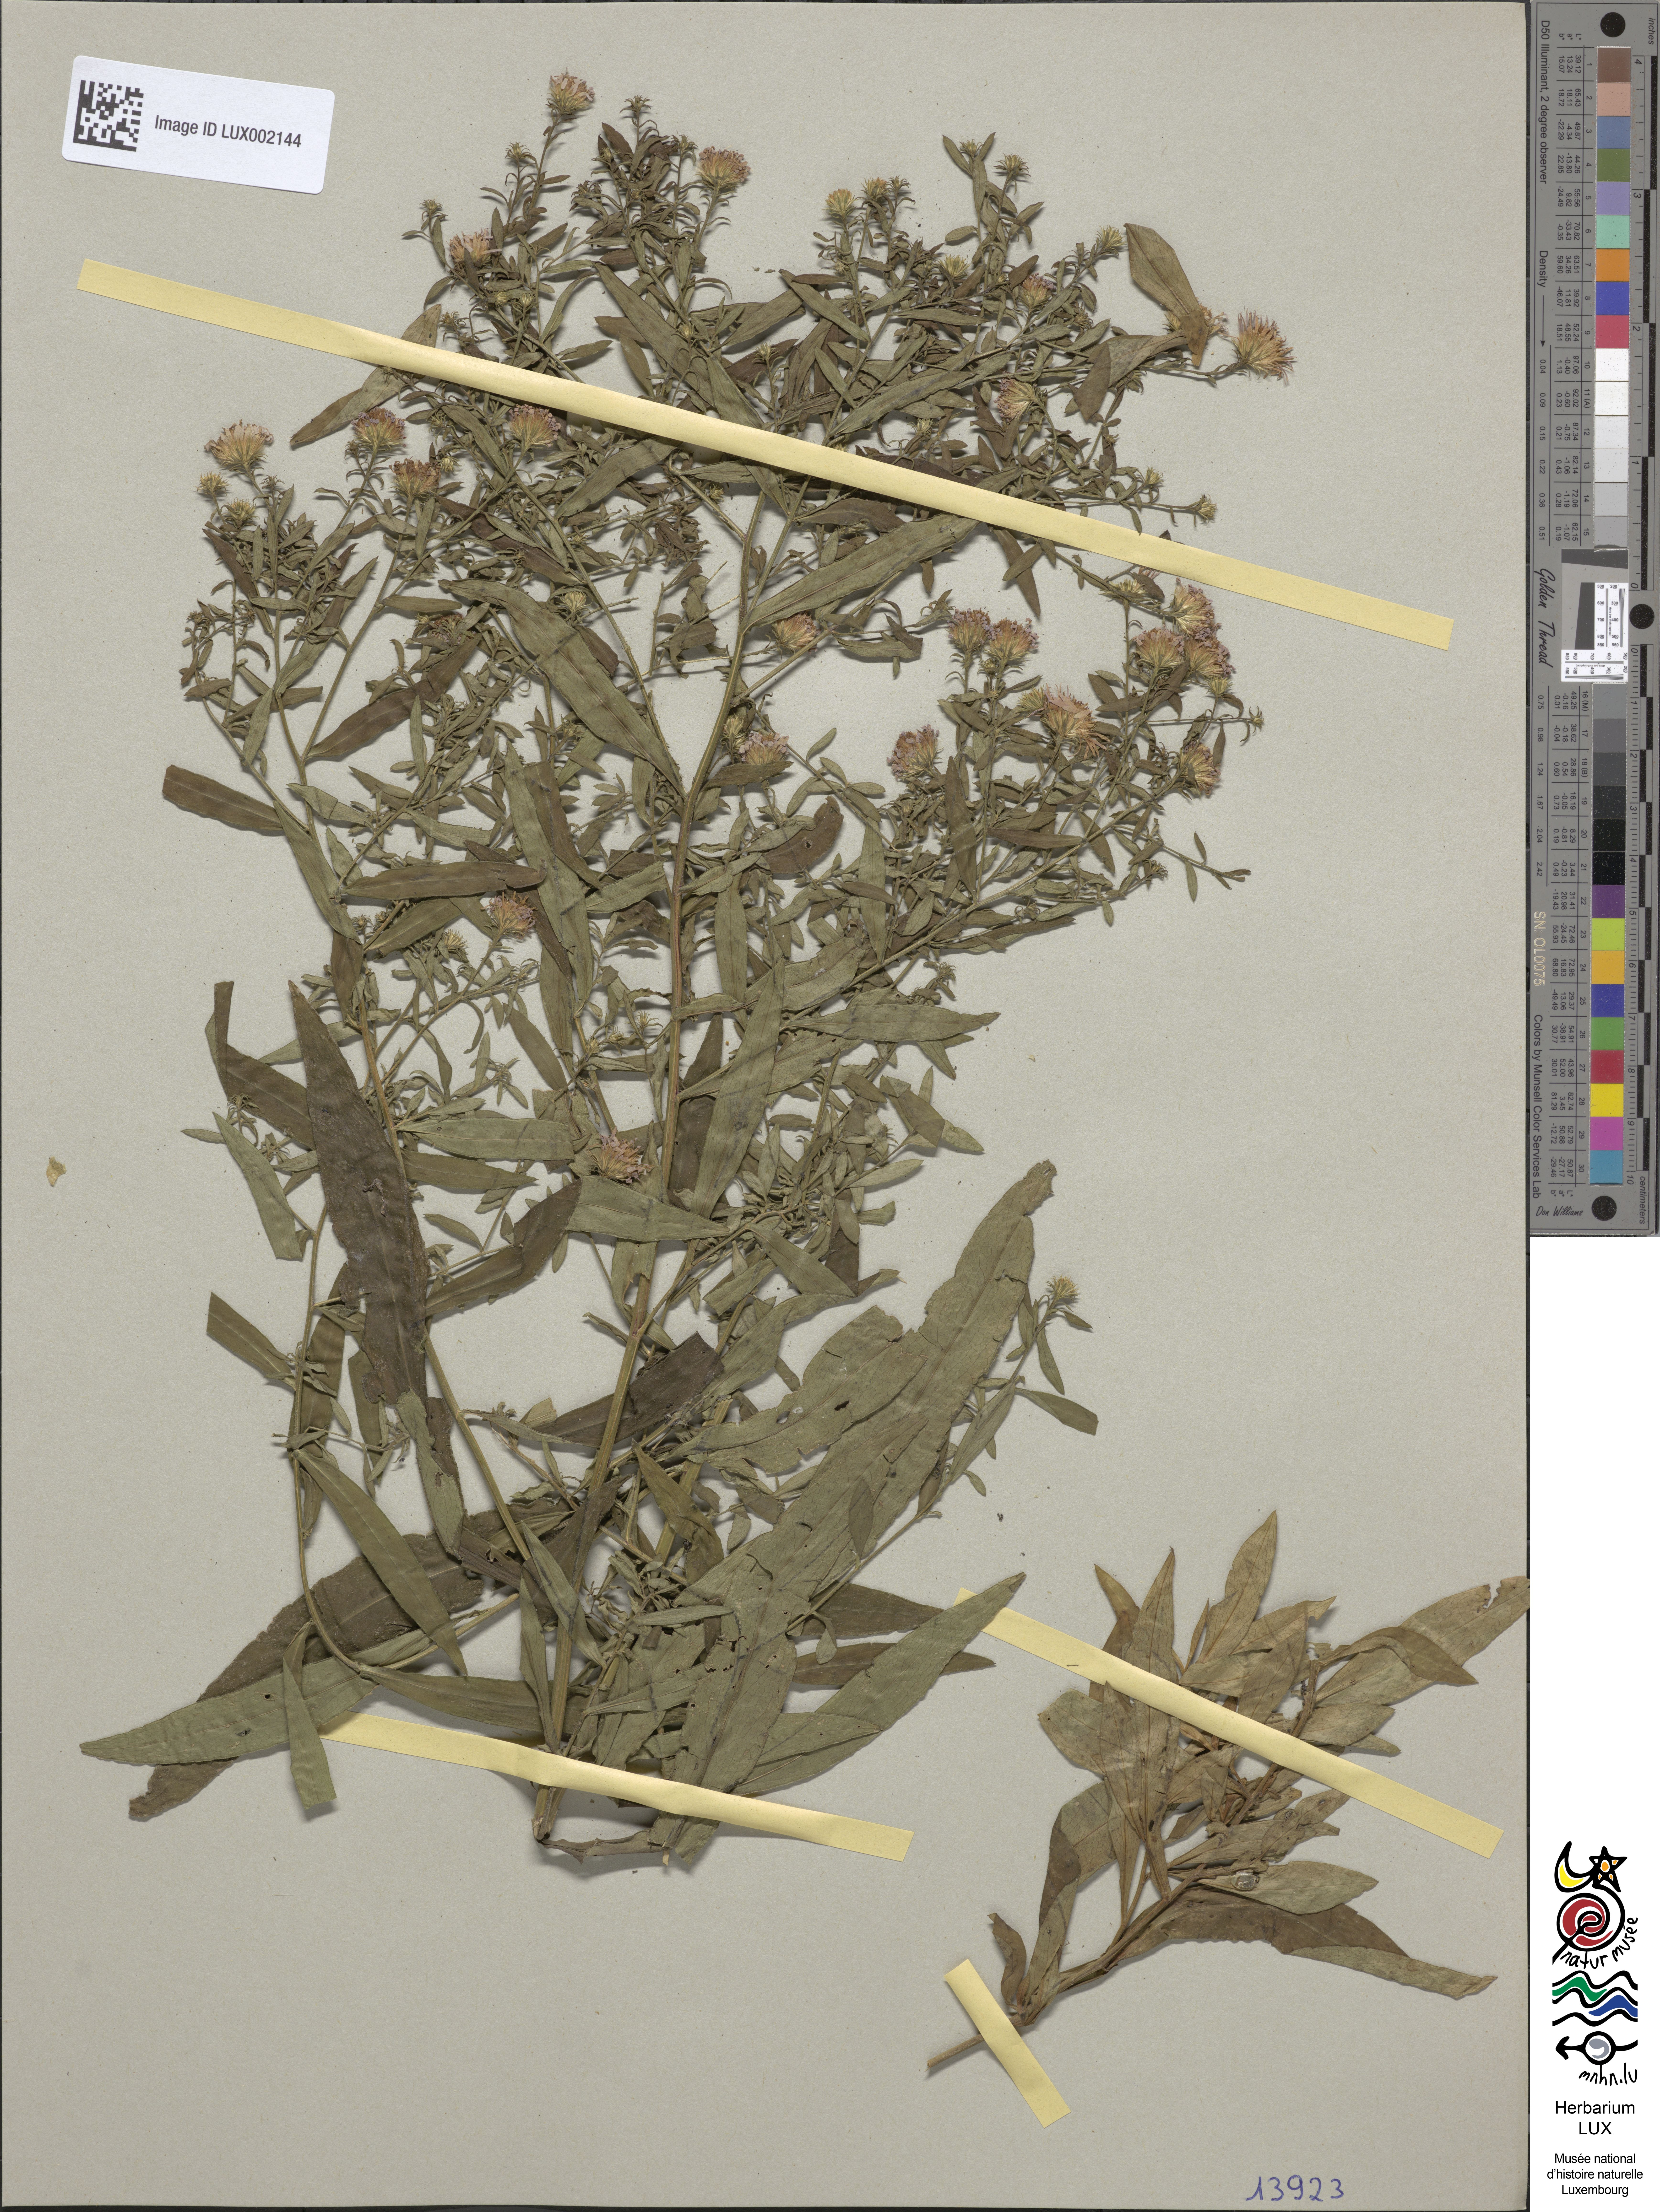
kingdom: Plantae
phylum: Tracheophyta
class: Magnoliopsida
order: Asterales
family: Asteraceae
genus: Symphyotrichum
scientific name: Symphyotrichum salignum
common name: Common michaelmas daisy
